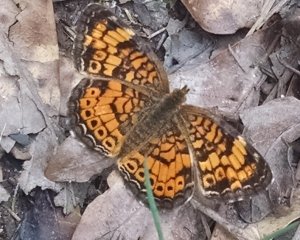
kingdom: Animalia
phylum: Arthropoda
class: Insecta
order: Lepidoptera
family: Nymphalidae
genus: Phyciodes
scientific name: Phyciodes tharos
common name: Pearl Crescent
